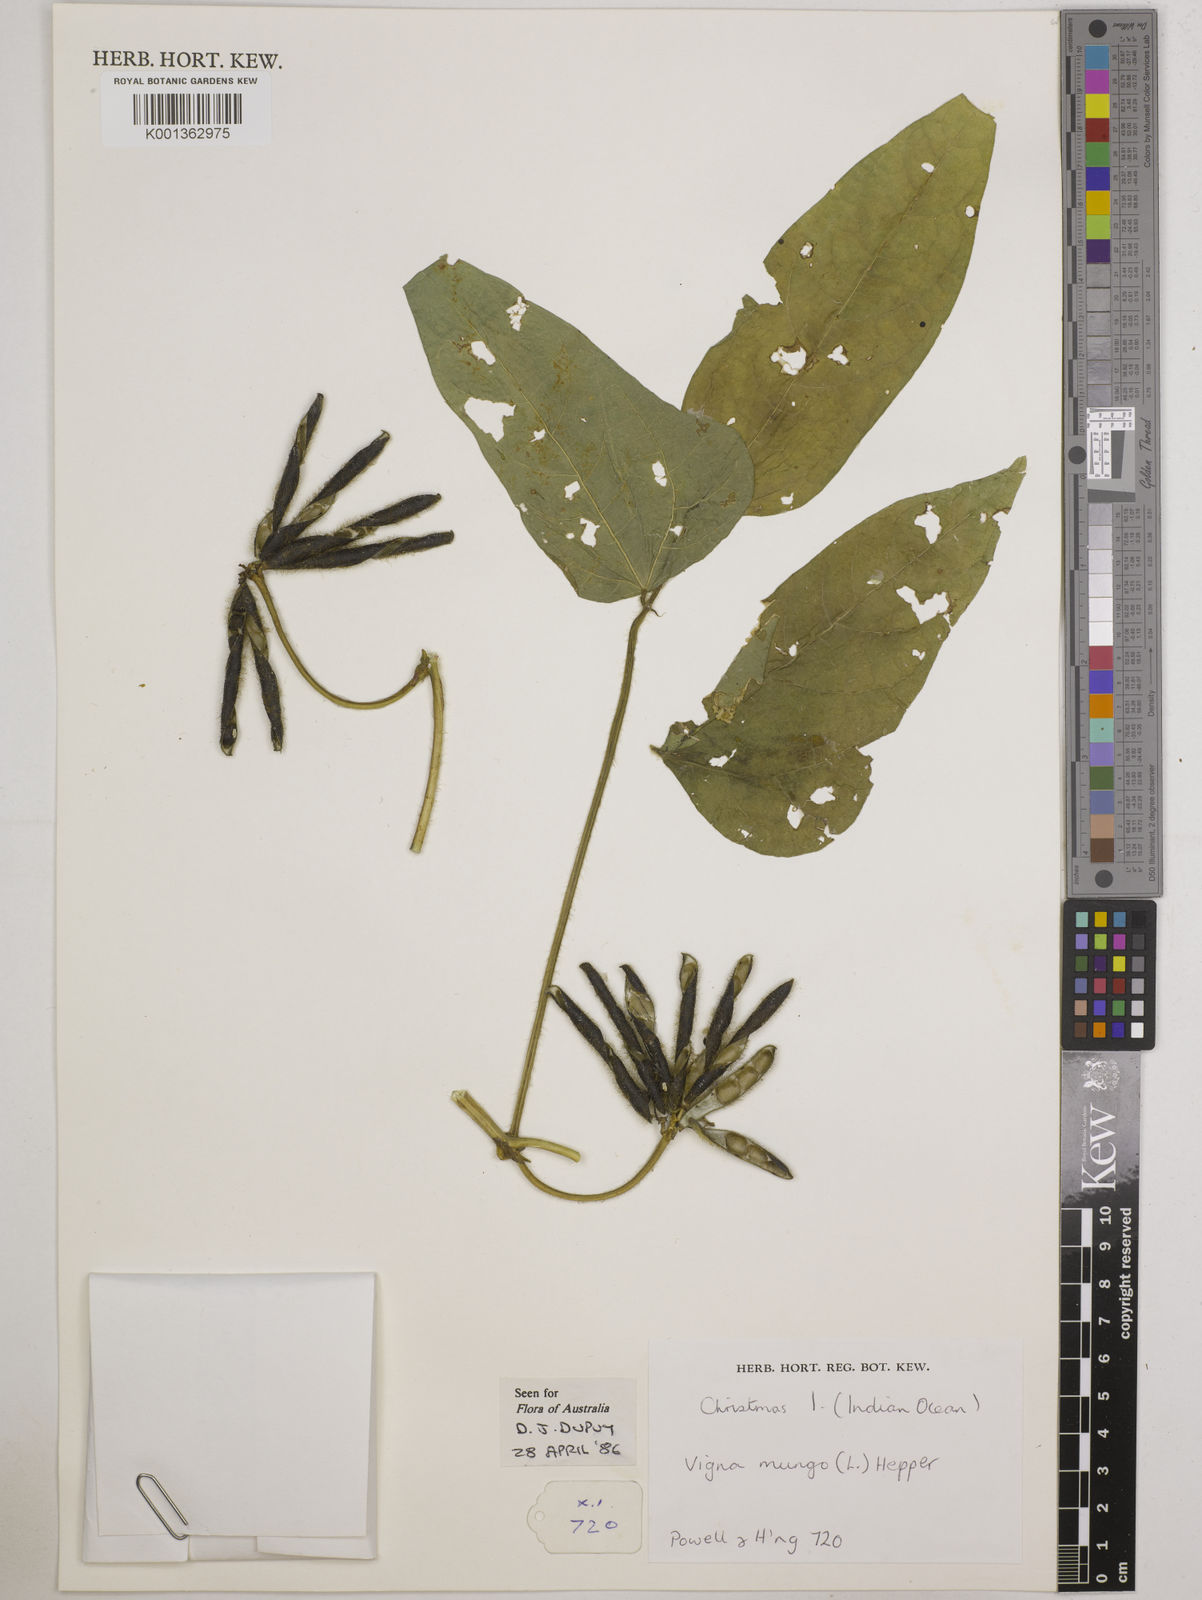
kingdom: Plantae
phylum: Tracheophyta
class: Magnoliopsida
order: Fabales
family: Fabaceae
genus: Vigna
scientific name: Vigna mungo
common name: Black gram
